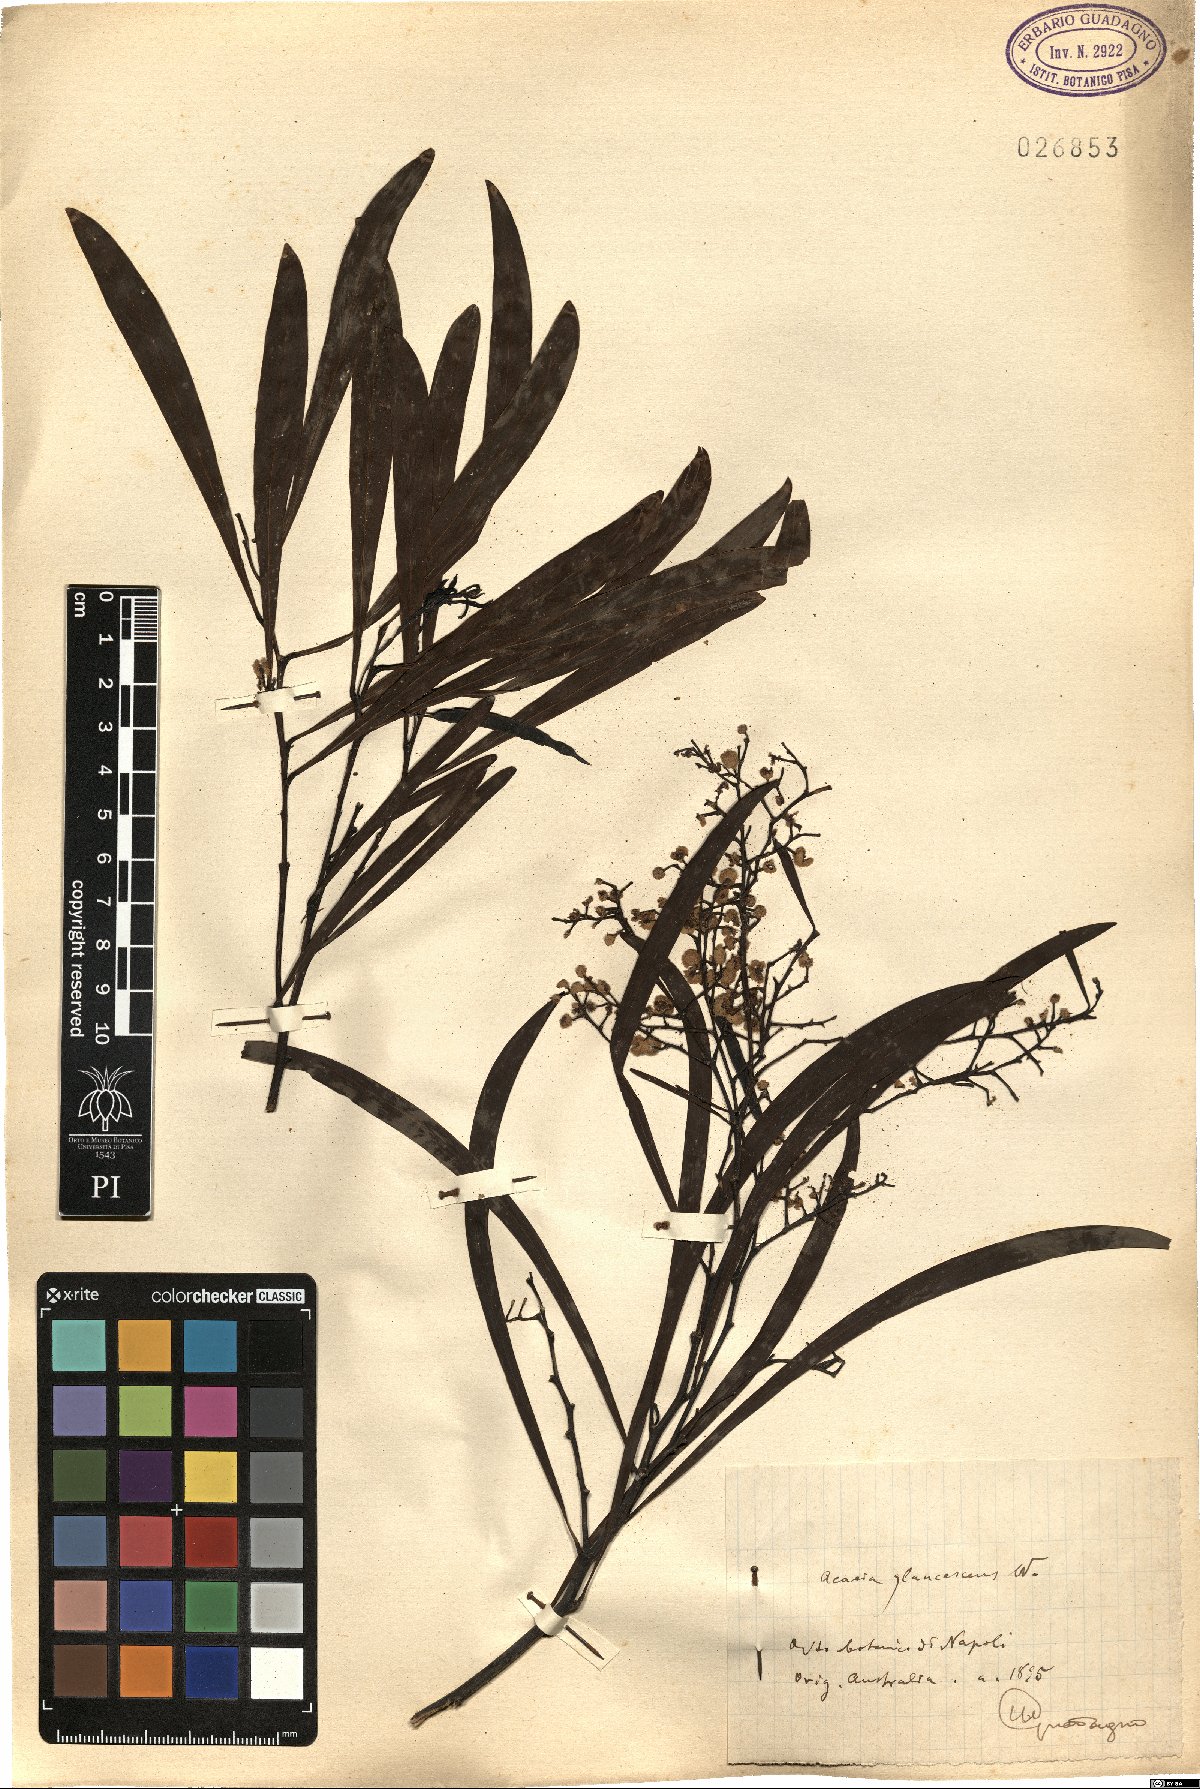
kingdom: Plantae
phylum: Tracheophyta
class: Magnoliopsida
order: Fabales
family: Fabaceae
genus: Acacia
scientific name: Acacia binervia
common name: Coast myall
